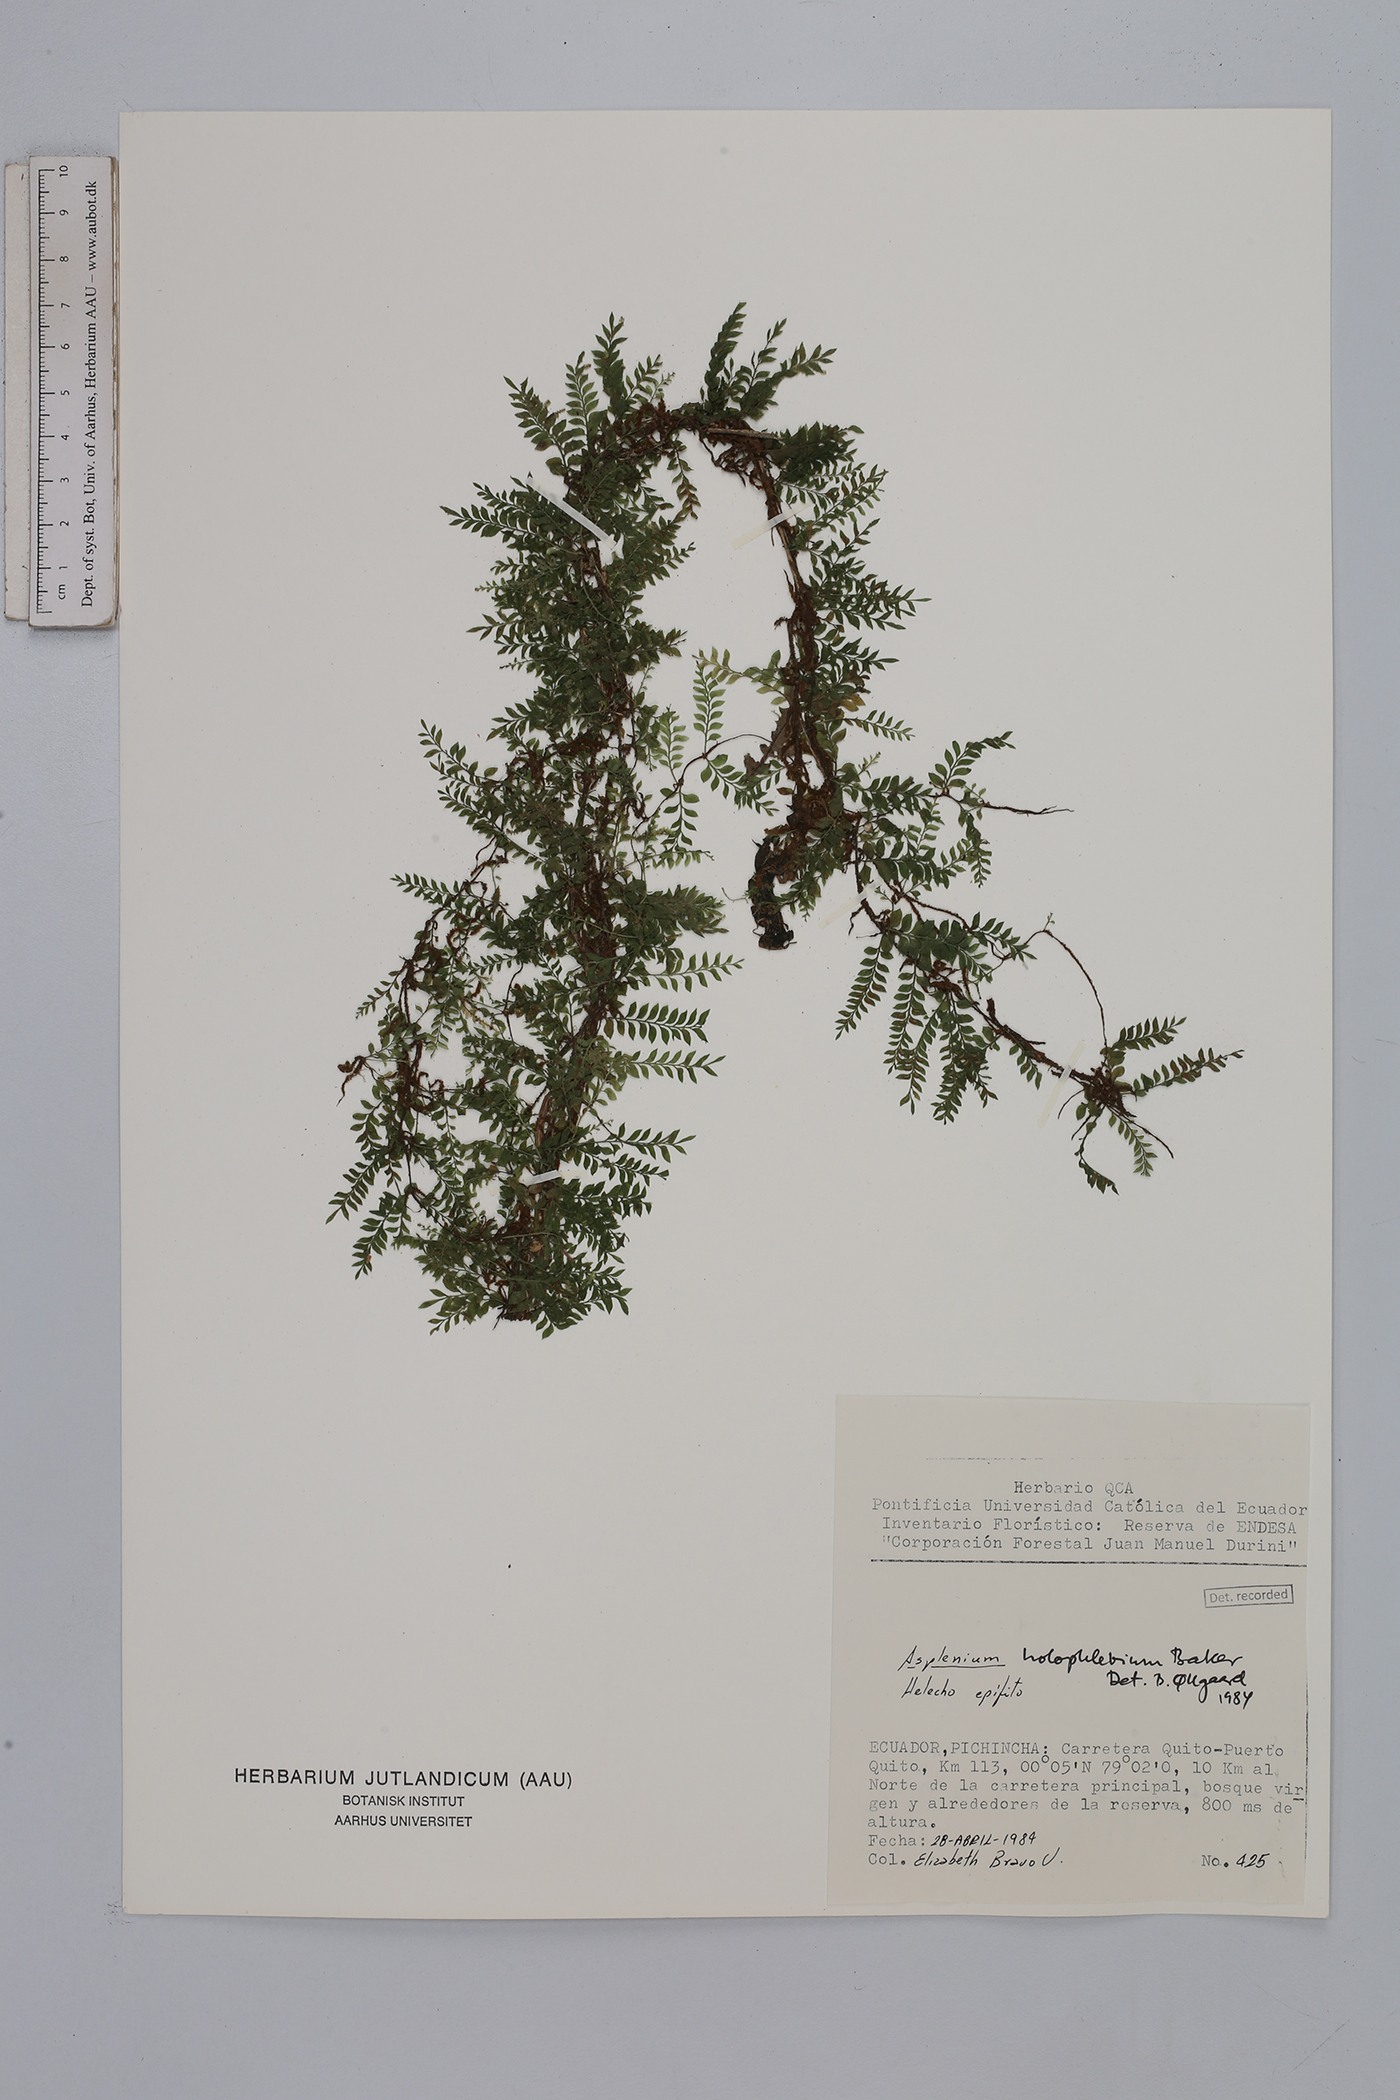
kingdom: Plantae
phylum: Tracheophyta
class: Polypodiopsida
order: Polypodiales
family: Aspleniaceae
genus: Asplenium
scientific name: Asplenium holophlebium
